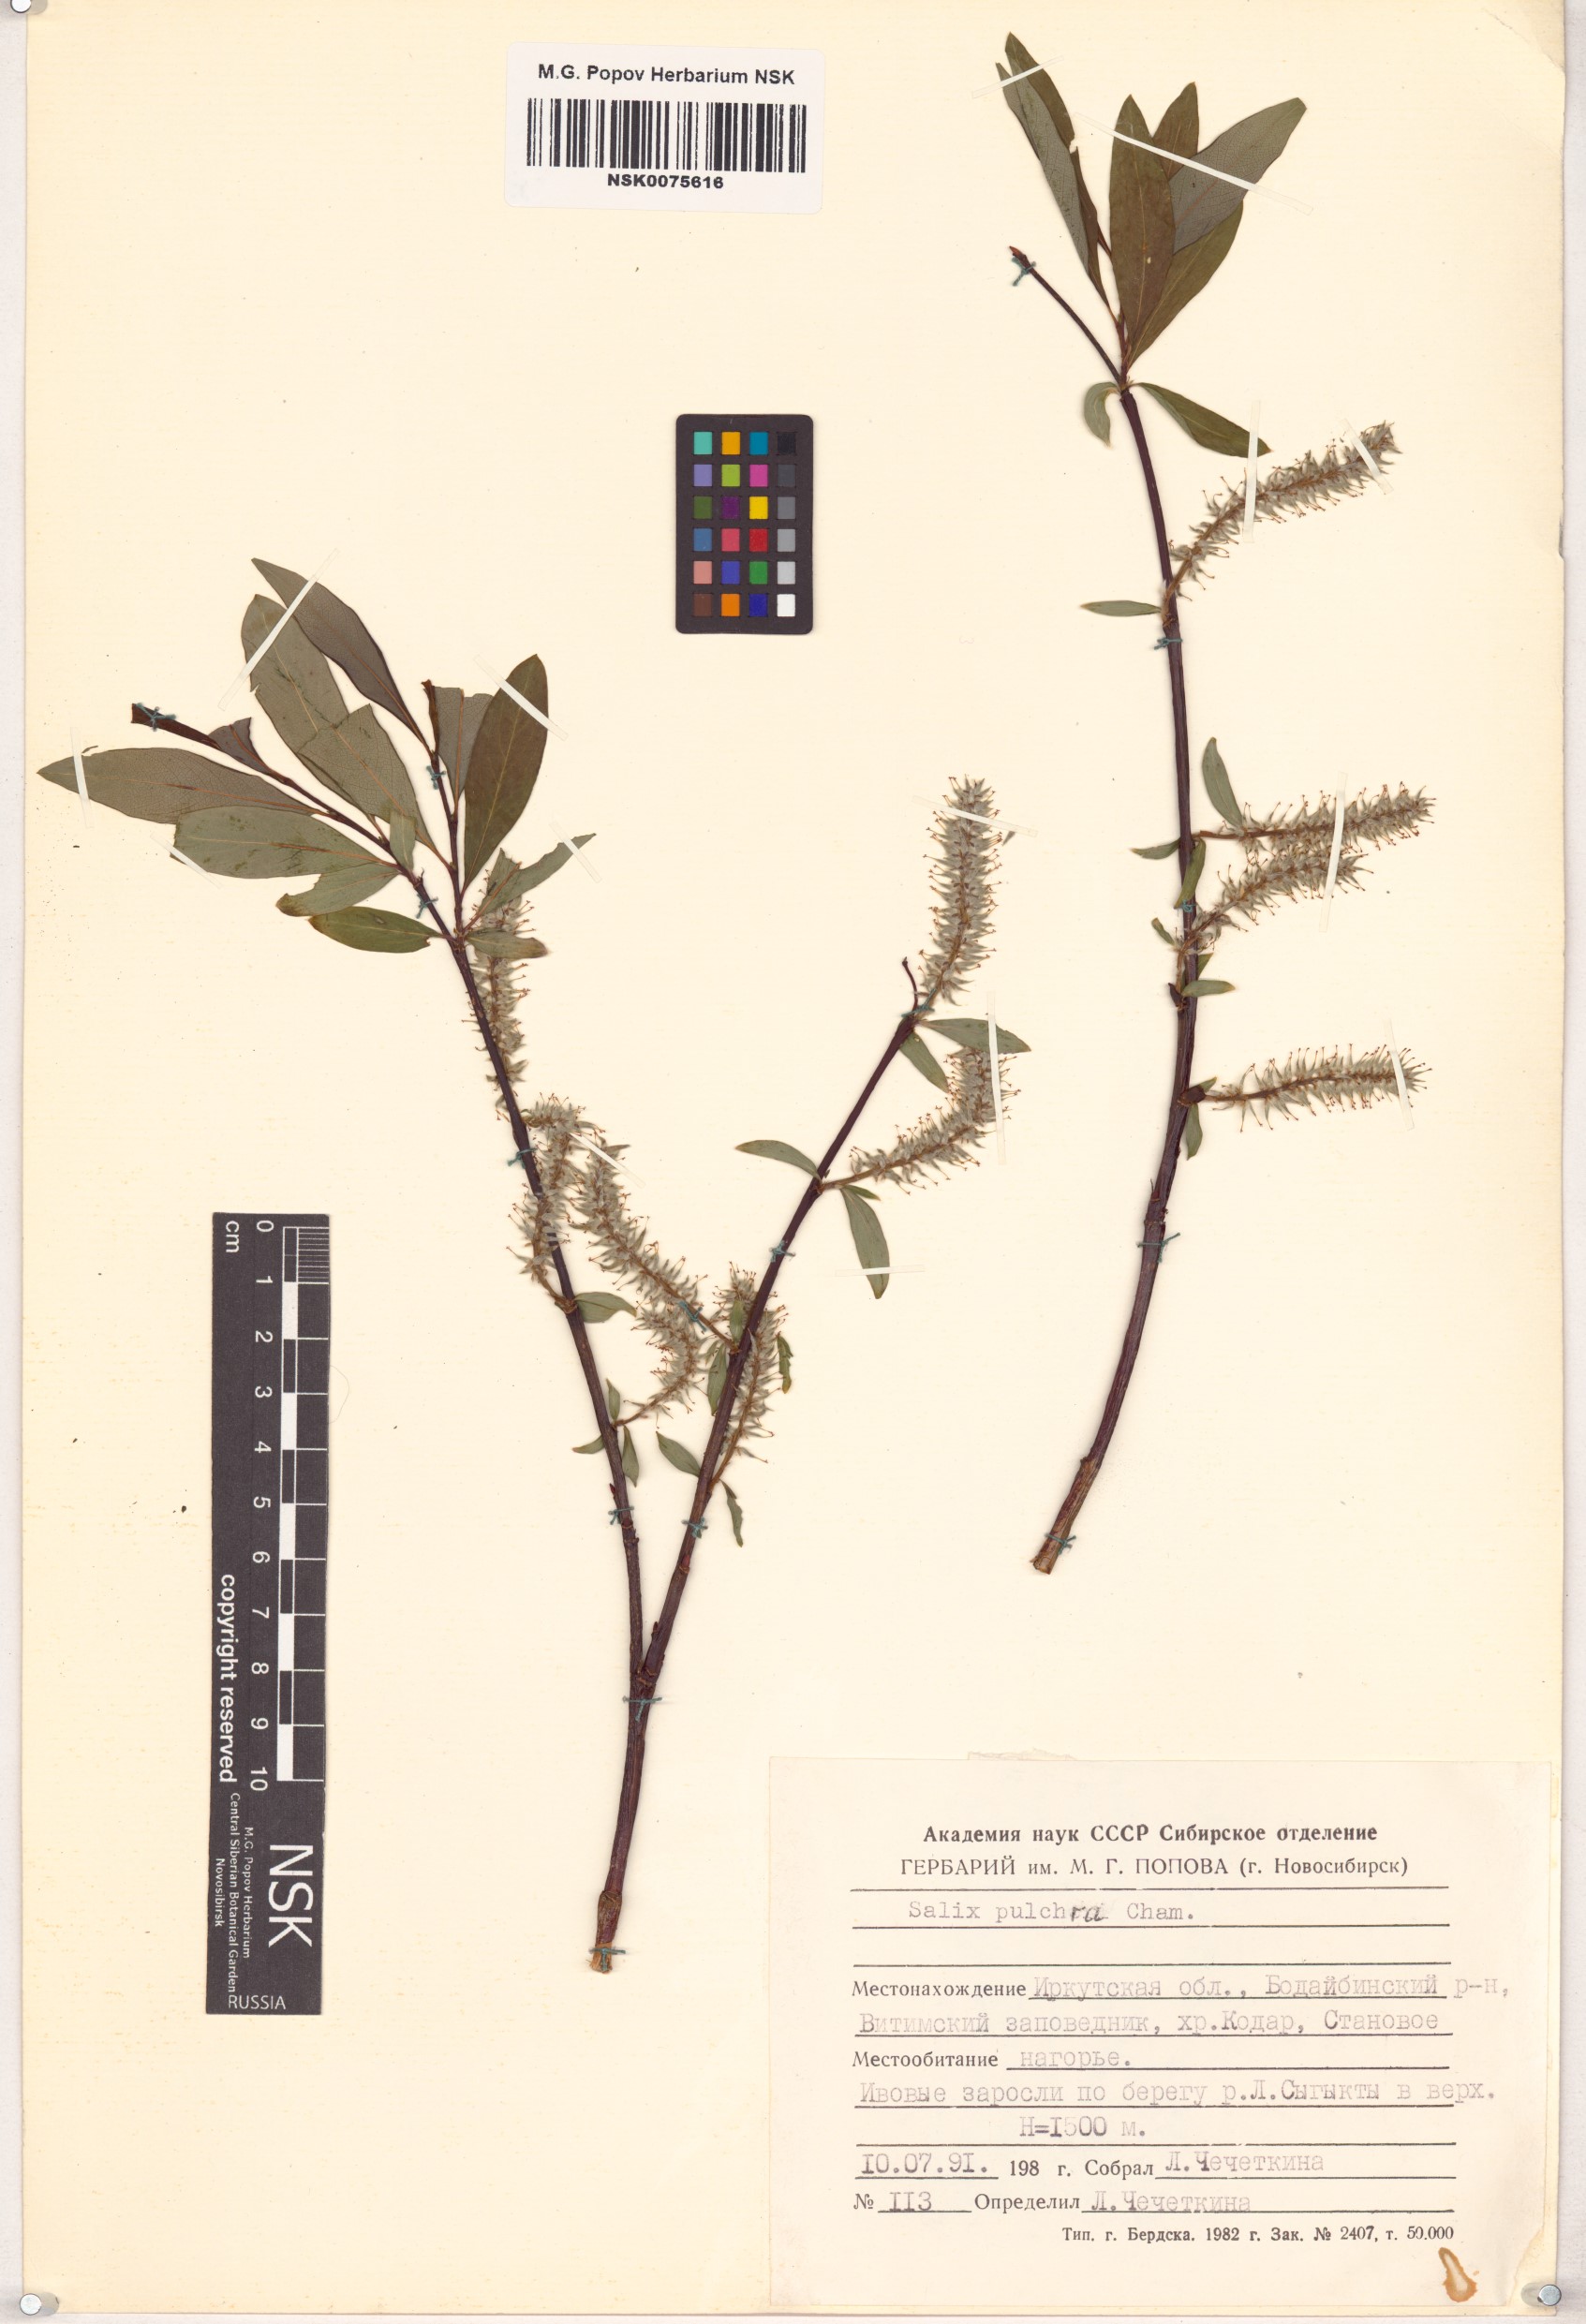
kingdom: Plantae
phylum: Tracheophyta
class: Magnoliopsida
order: Malpighiales
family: Salicaceae
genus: Salix
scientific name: Salix pulchra
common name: Diamond-leaved willow
